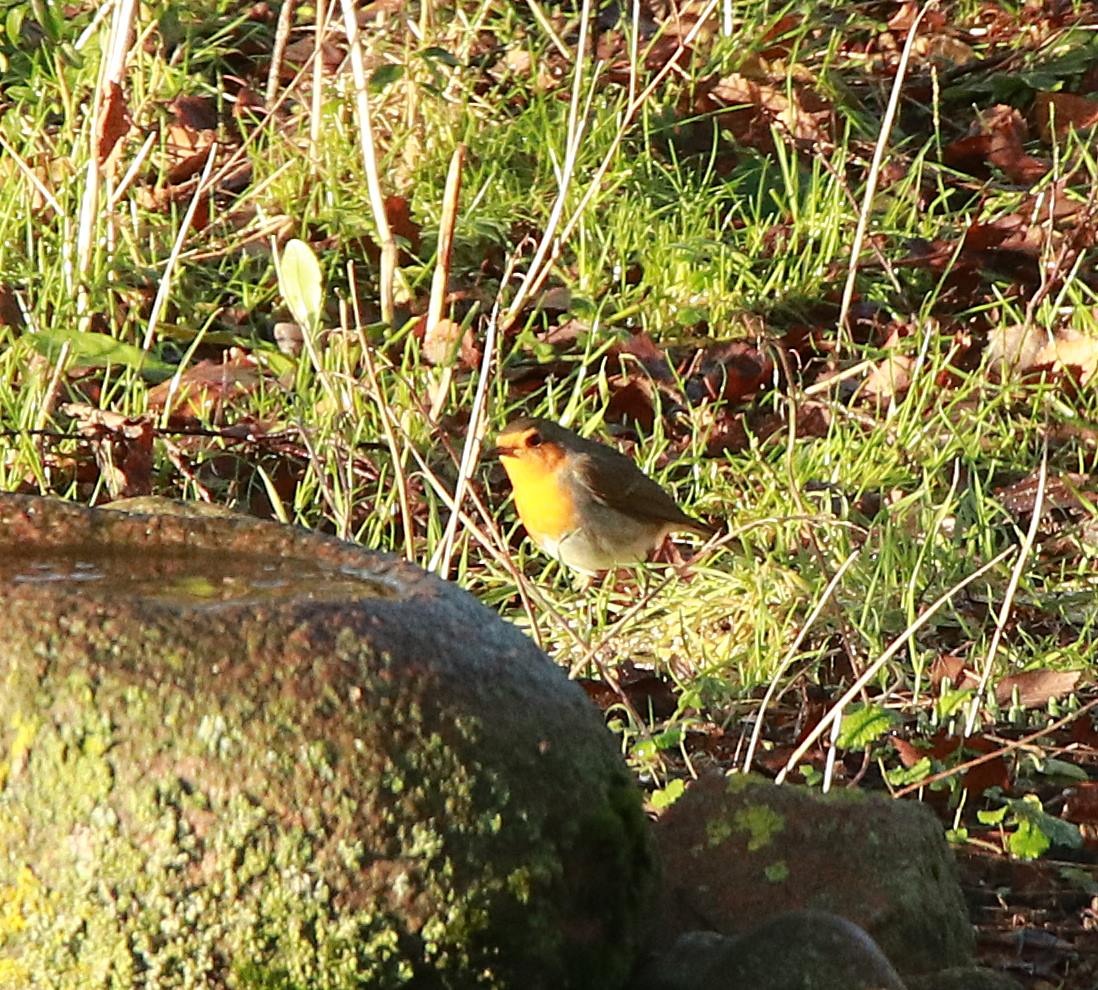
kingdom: Animalia
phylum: Chordata
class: Aves
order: Passeriformes
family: Muscicapidae
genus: Erithacus
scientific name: Erithacus rubecula
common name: Rødhals/rødkælk
